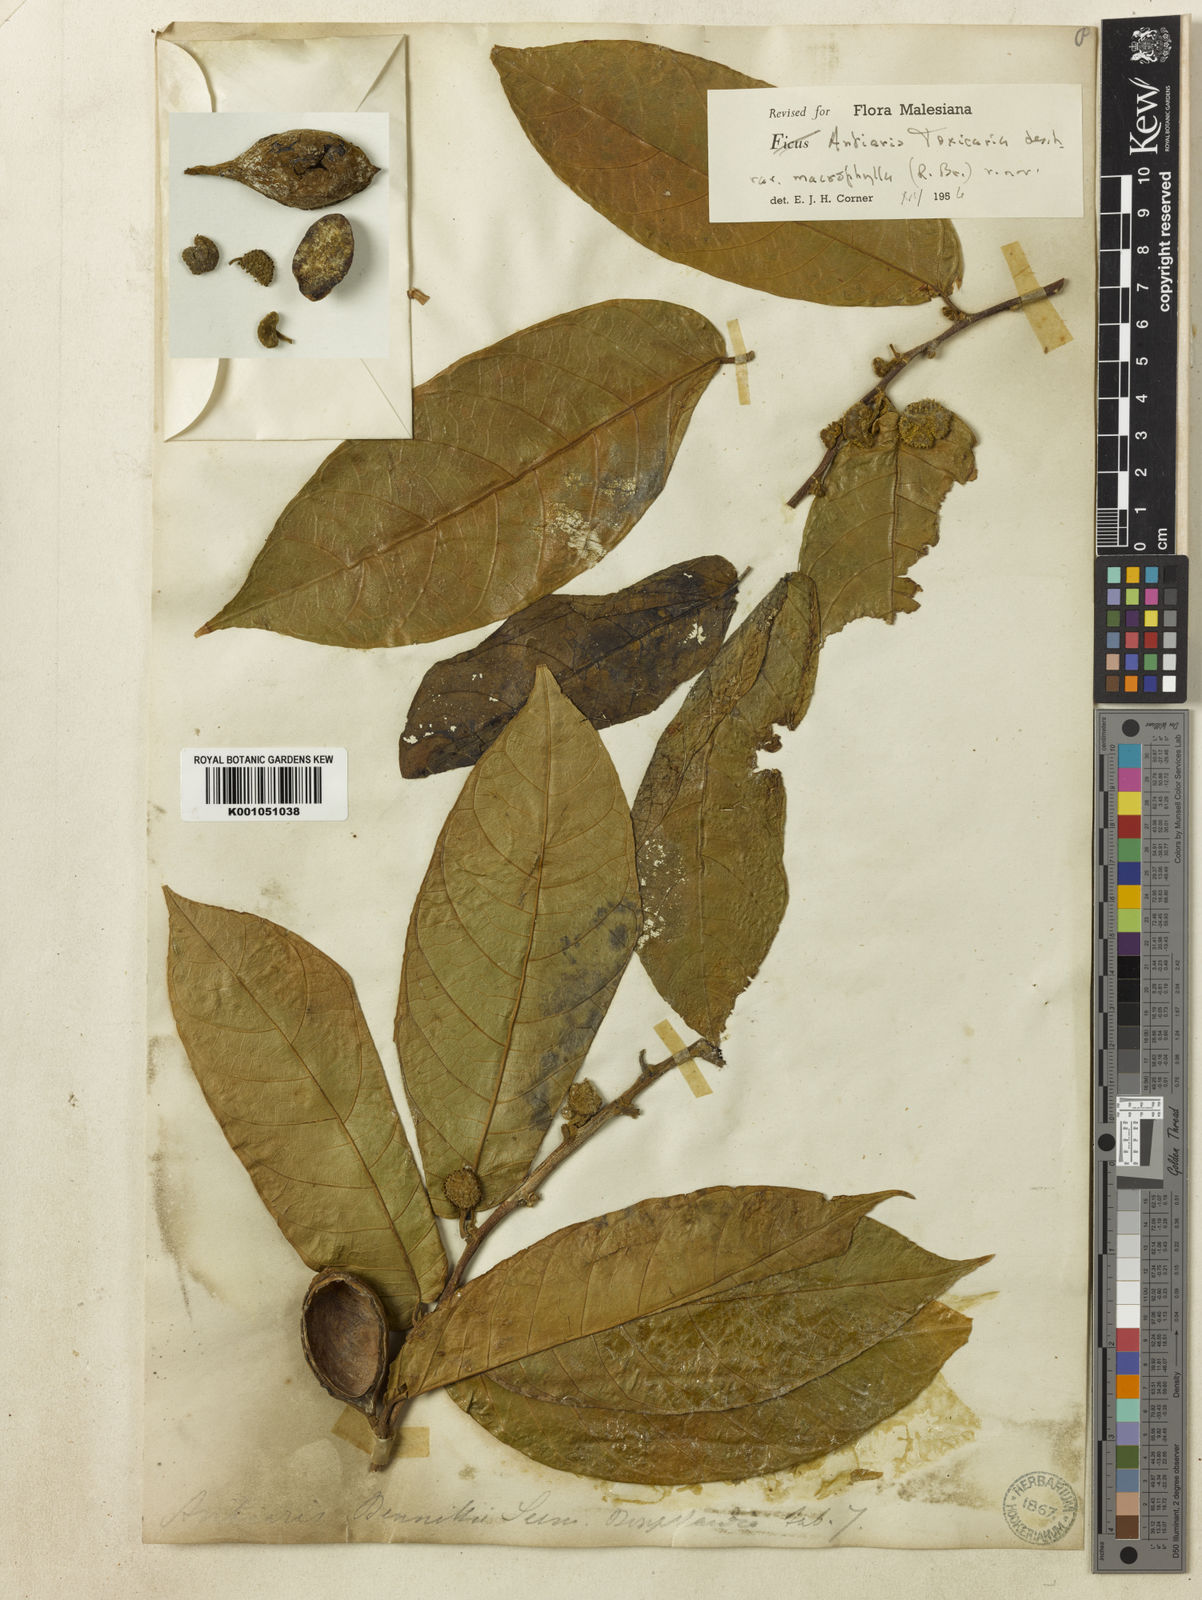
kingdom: Plantae
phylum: Tracheophyta
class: Magnoliopsida
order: Rosales
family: Moraceae
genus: Antiaris
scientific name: Antiaris toxicaria
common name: Sackingtree
